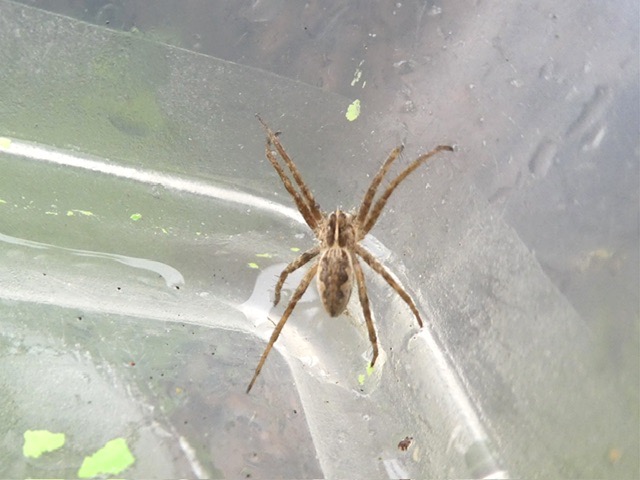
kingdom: Animalia
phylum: Arthropoda
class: Arachnida
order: Araneae
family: Pisauridae
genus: Pisaura
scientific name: Pisaura mirabilis
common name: Almindelig rovedderkop
